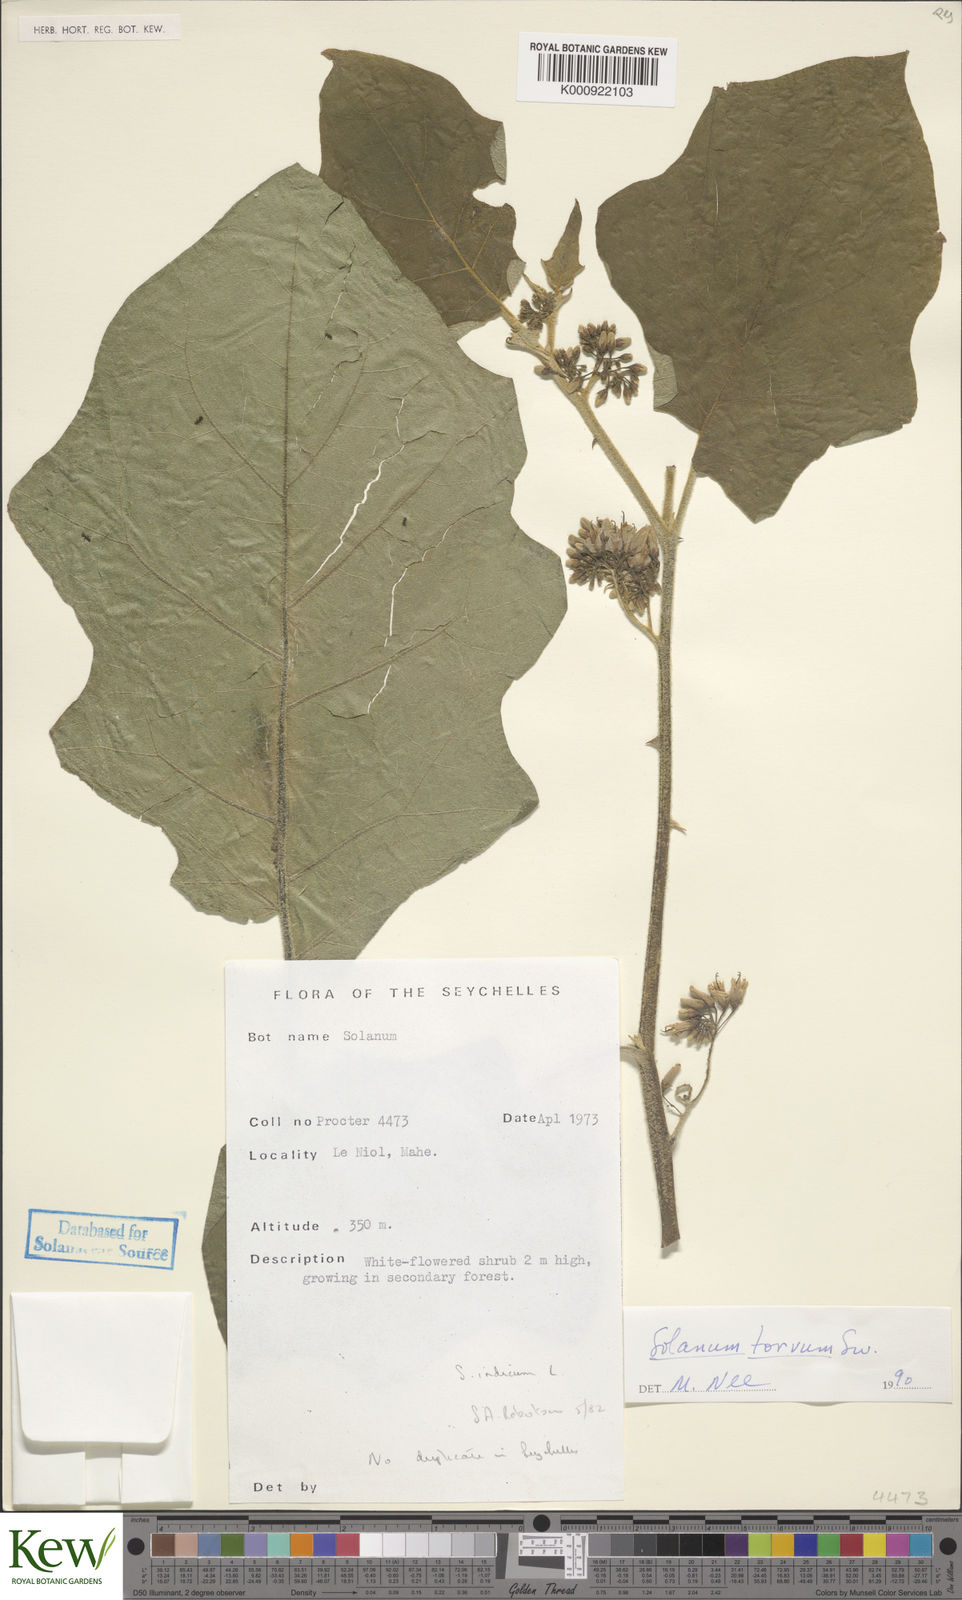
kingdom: Plantae
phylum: Tracheophyta
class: Magnoliopsida
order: Solanales
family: Solanaceae
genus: Solanum
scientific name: Solanum torvum
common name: Turkey berry
